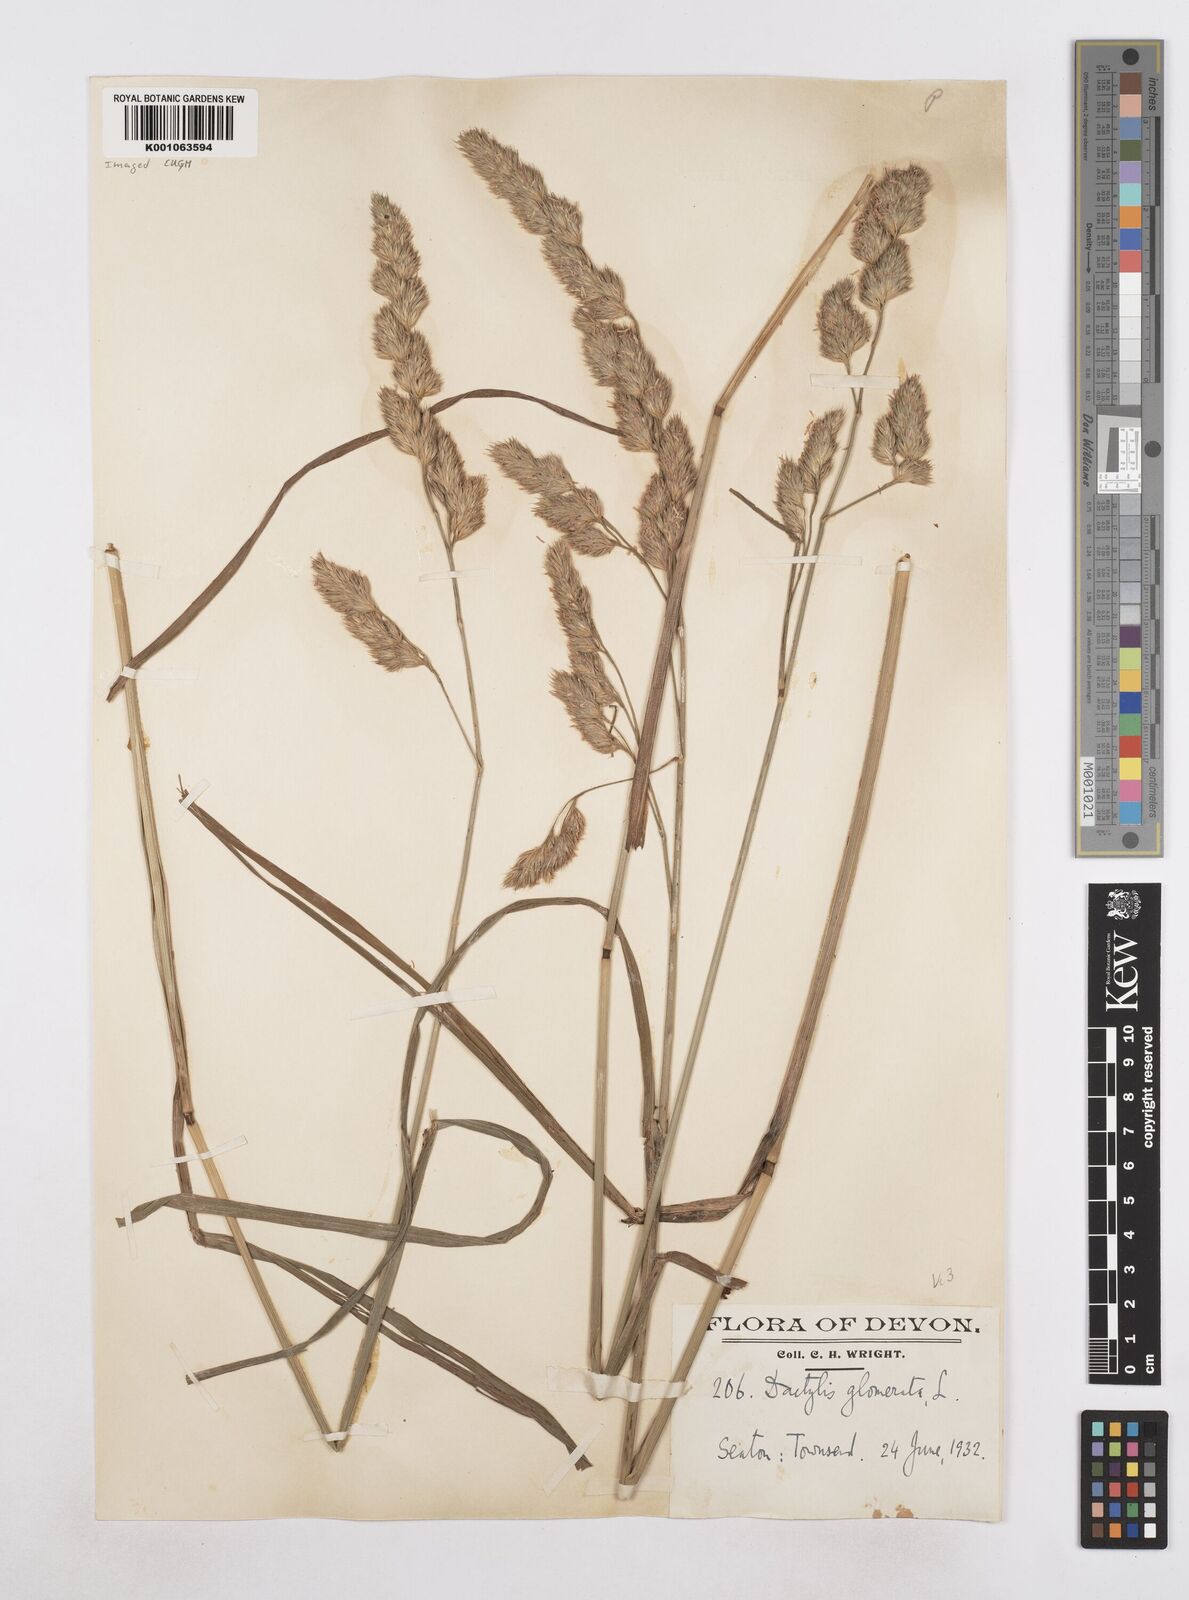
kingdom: Plantae
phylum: Tracheophyta
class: Liliopsida
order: Poales
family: Poaceae
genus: Dactylis
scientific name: Dactylis glomerata
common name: Orchardgrass
